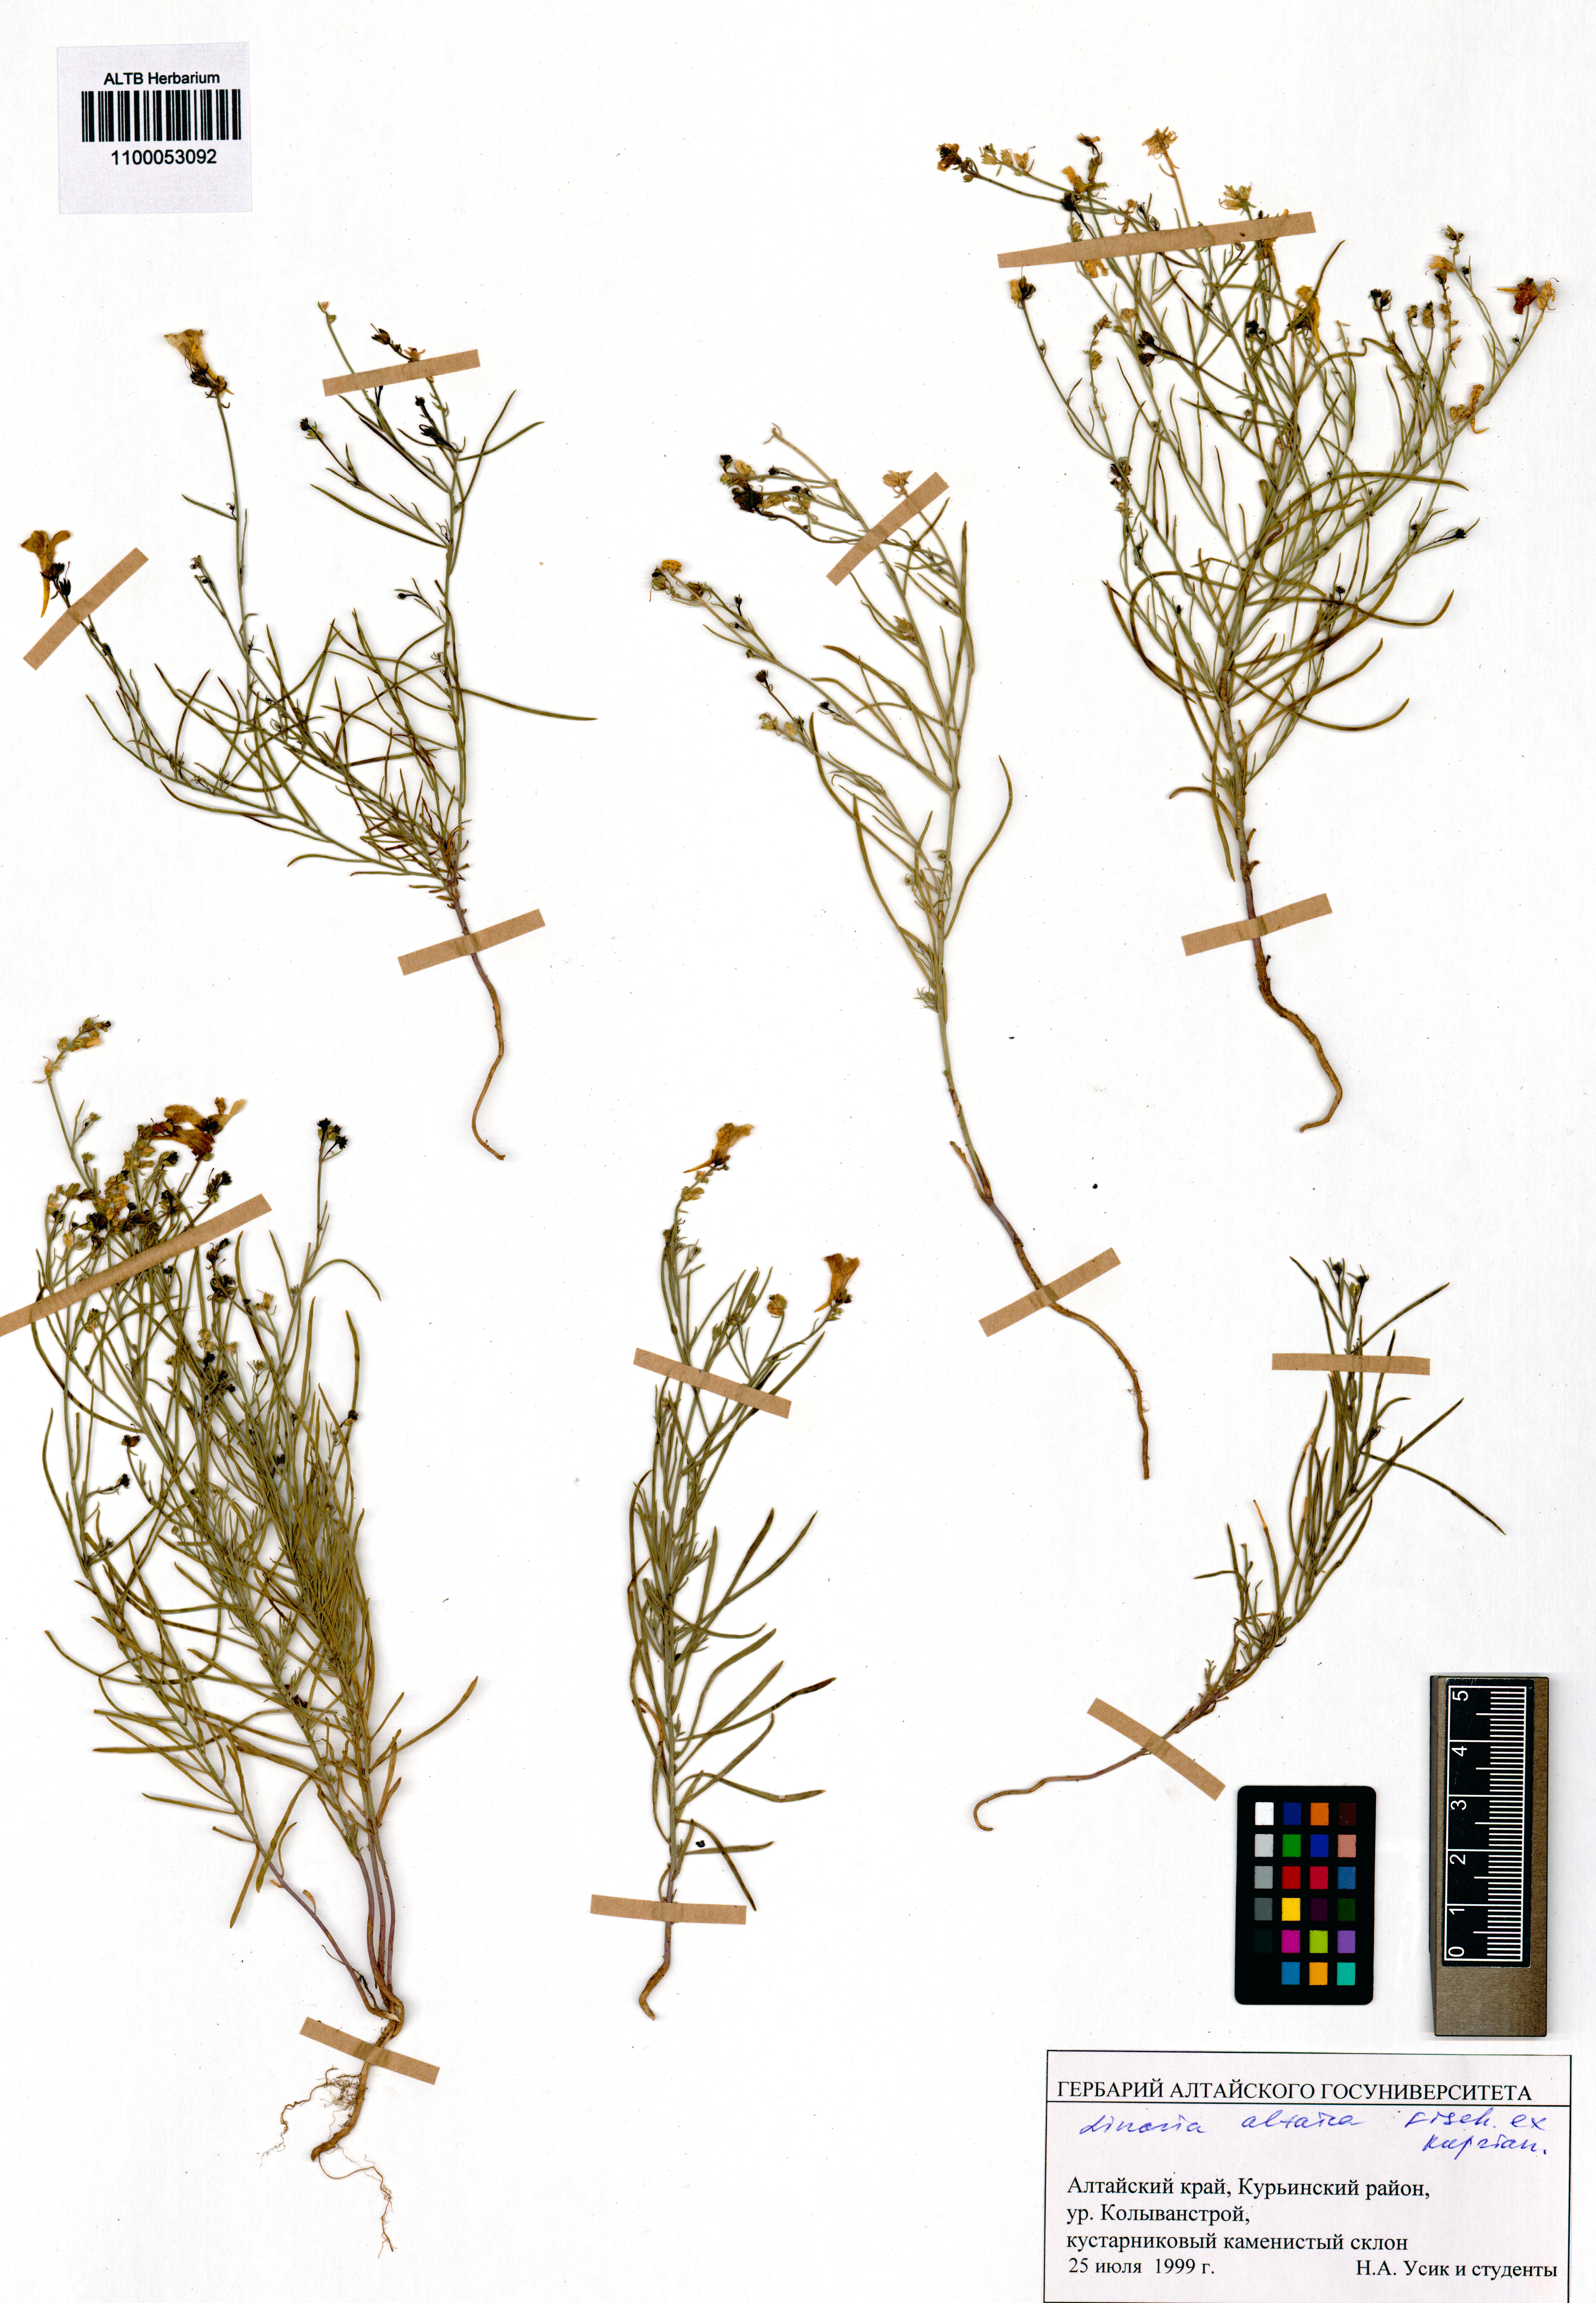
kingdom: Plantae
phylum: Tracheophyta
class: Magnoliopsida
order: Lamiales
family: Plantaginaceae
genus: Linaria
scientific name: Linaria altaica
